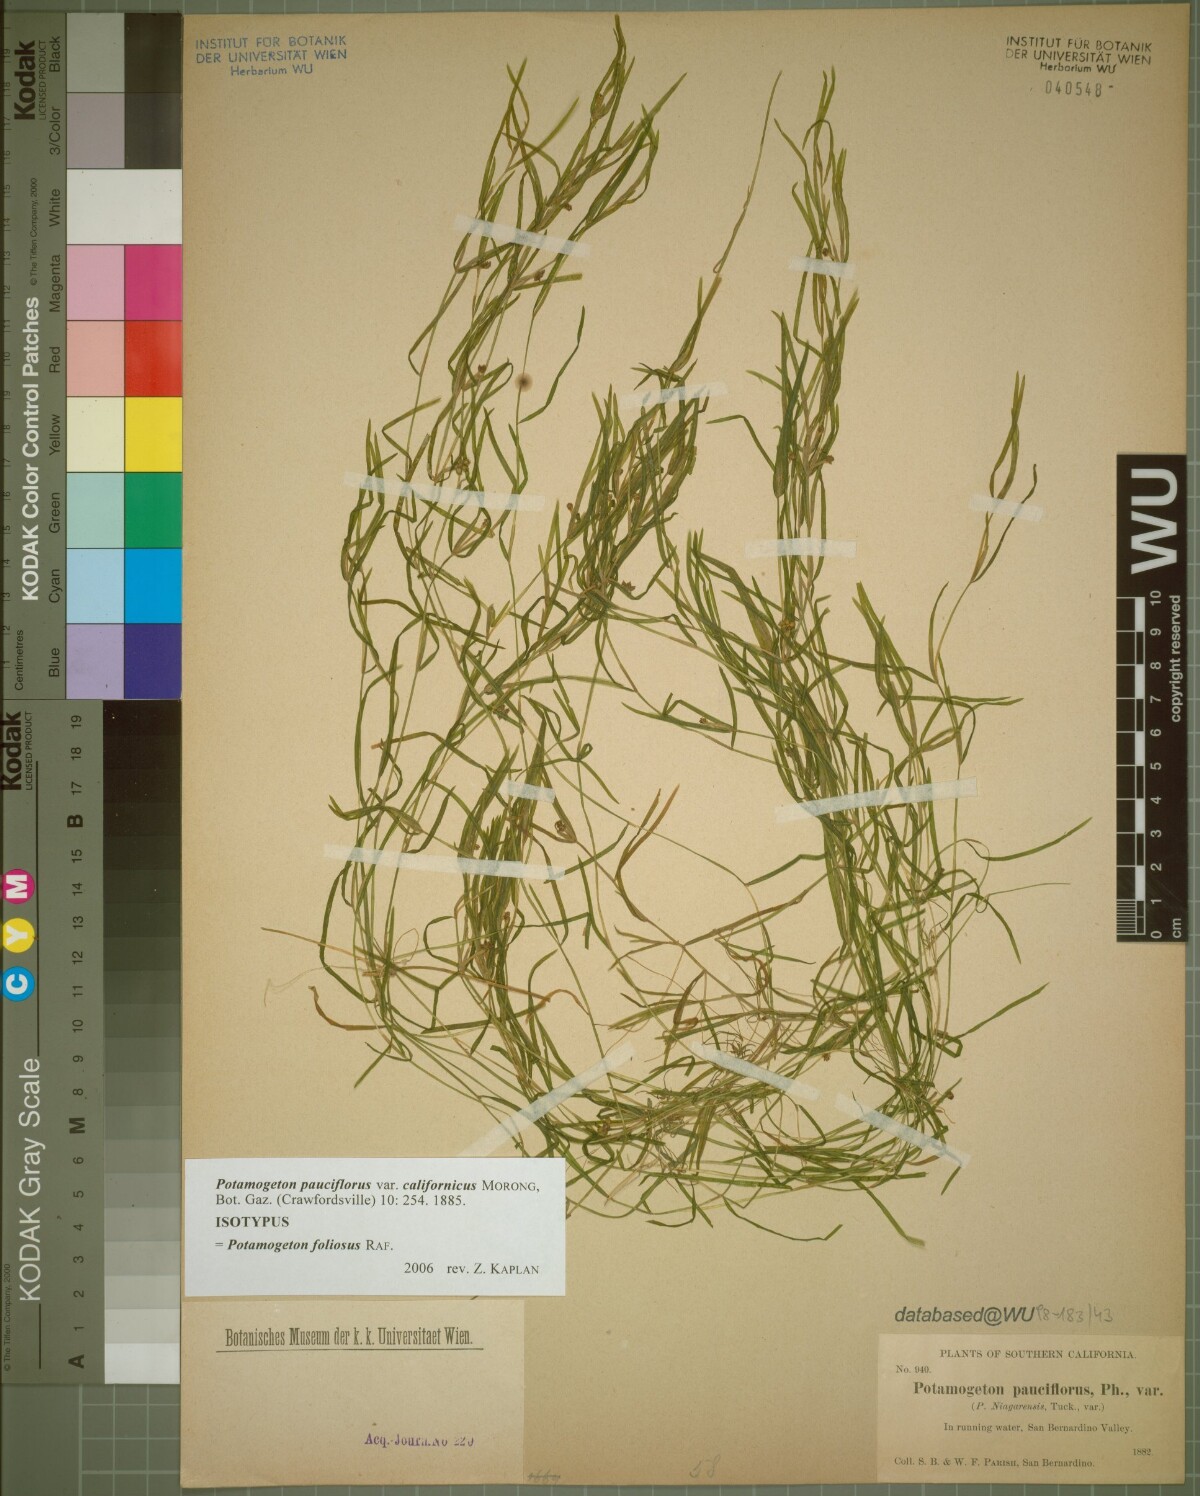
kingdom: Plantae
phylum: Tracheophyta
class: Liliopsida
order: Alismatales
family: Potamogetonaceae
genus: Potamogeton
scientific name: Potamogeton foliosus
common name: Leafy pondweed
